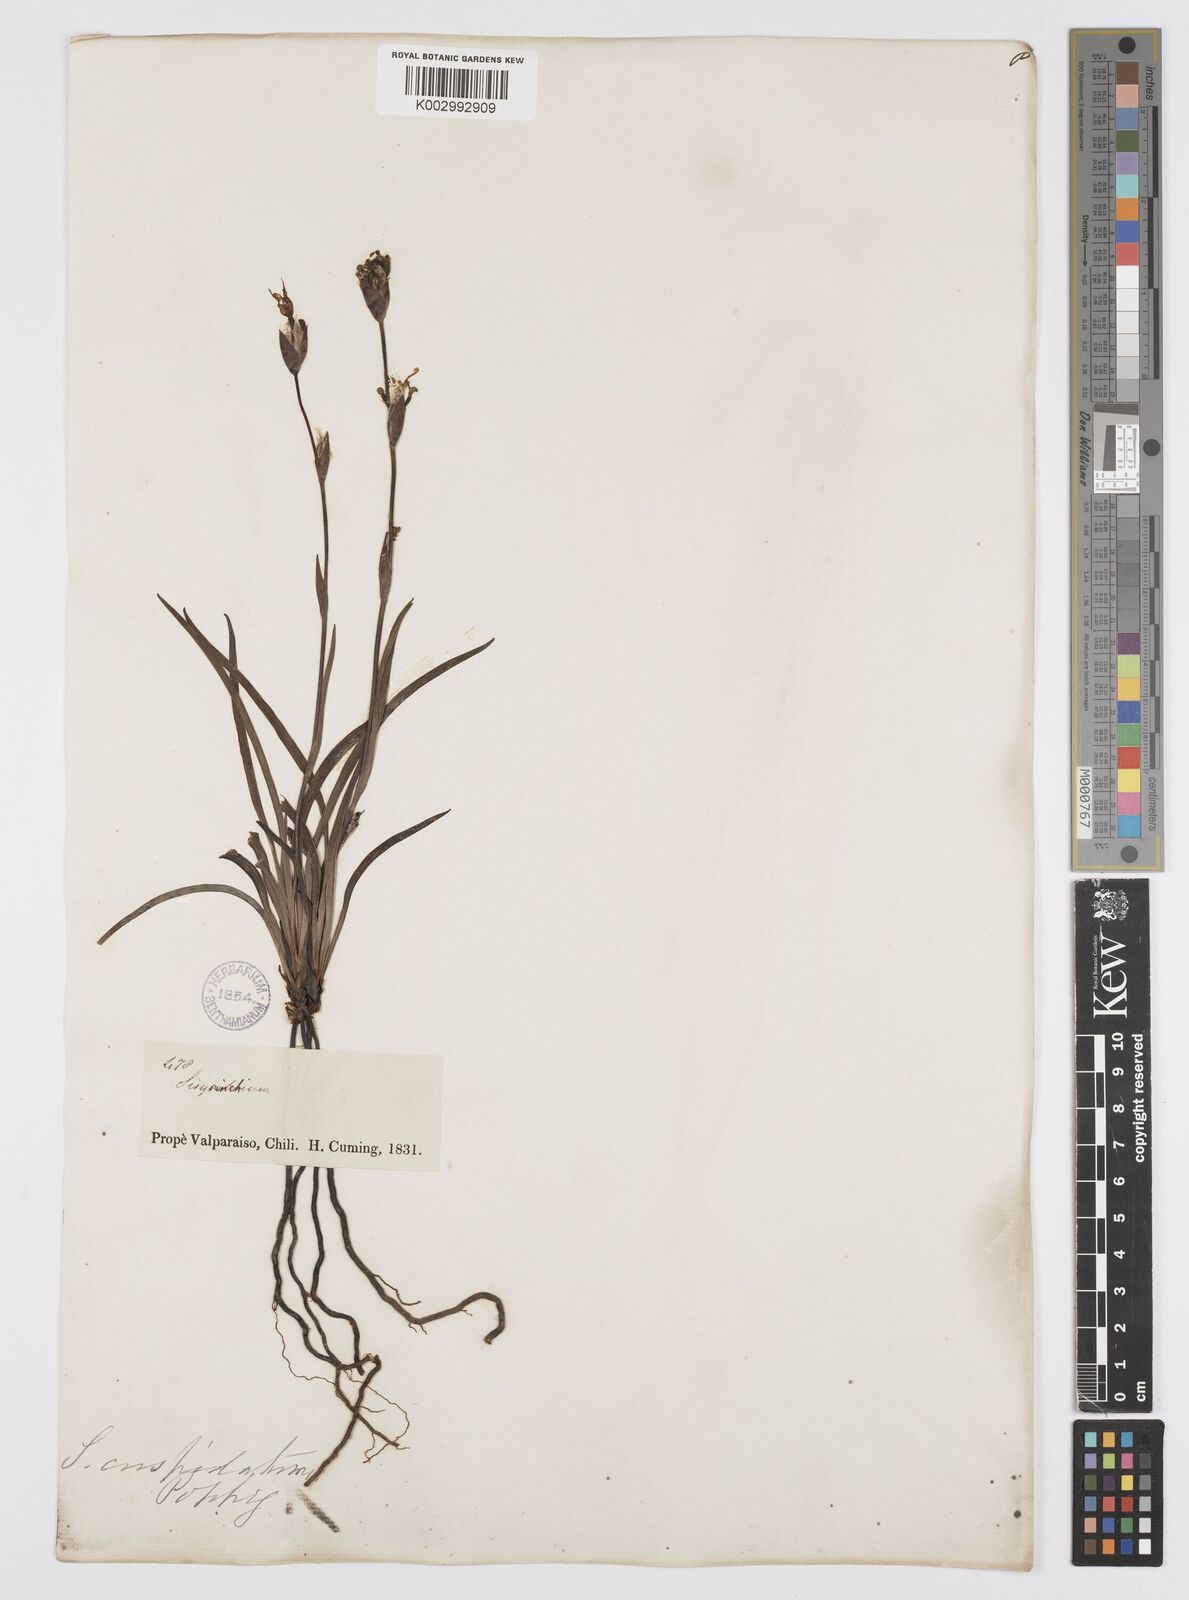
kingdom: Plantae
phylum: Tracheophyta
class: Liliopsida
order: Asparagales
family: Iridaceae
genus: Sisyrinchium
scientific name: Sisyrinchium cuspidatum
